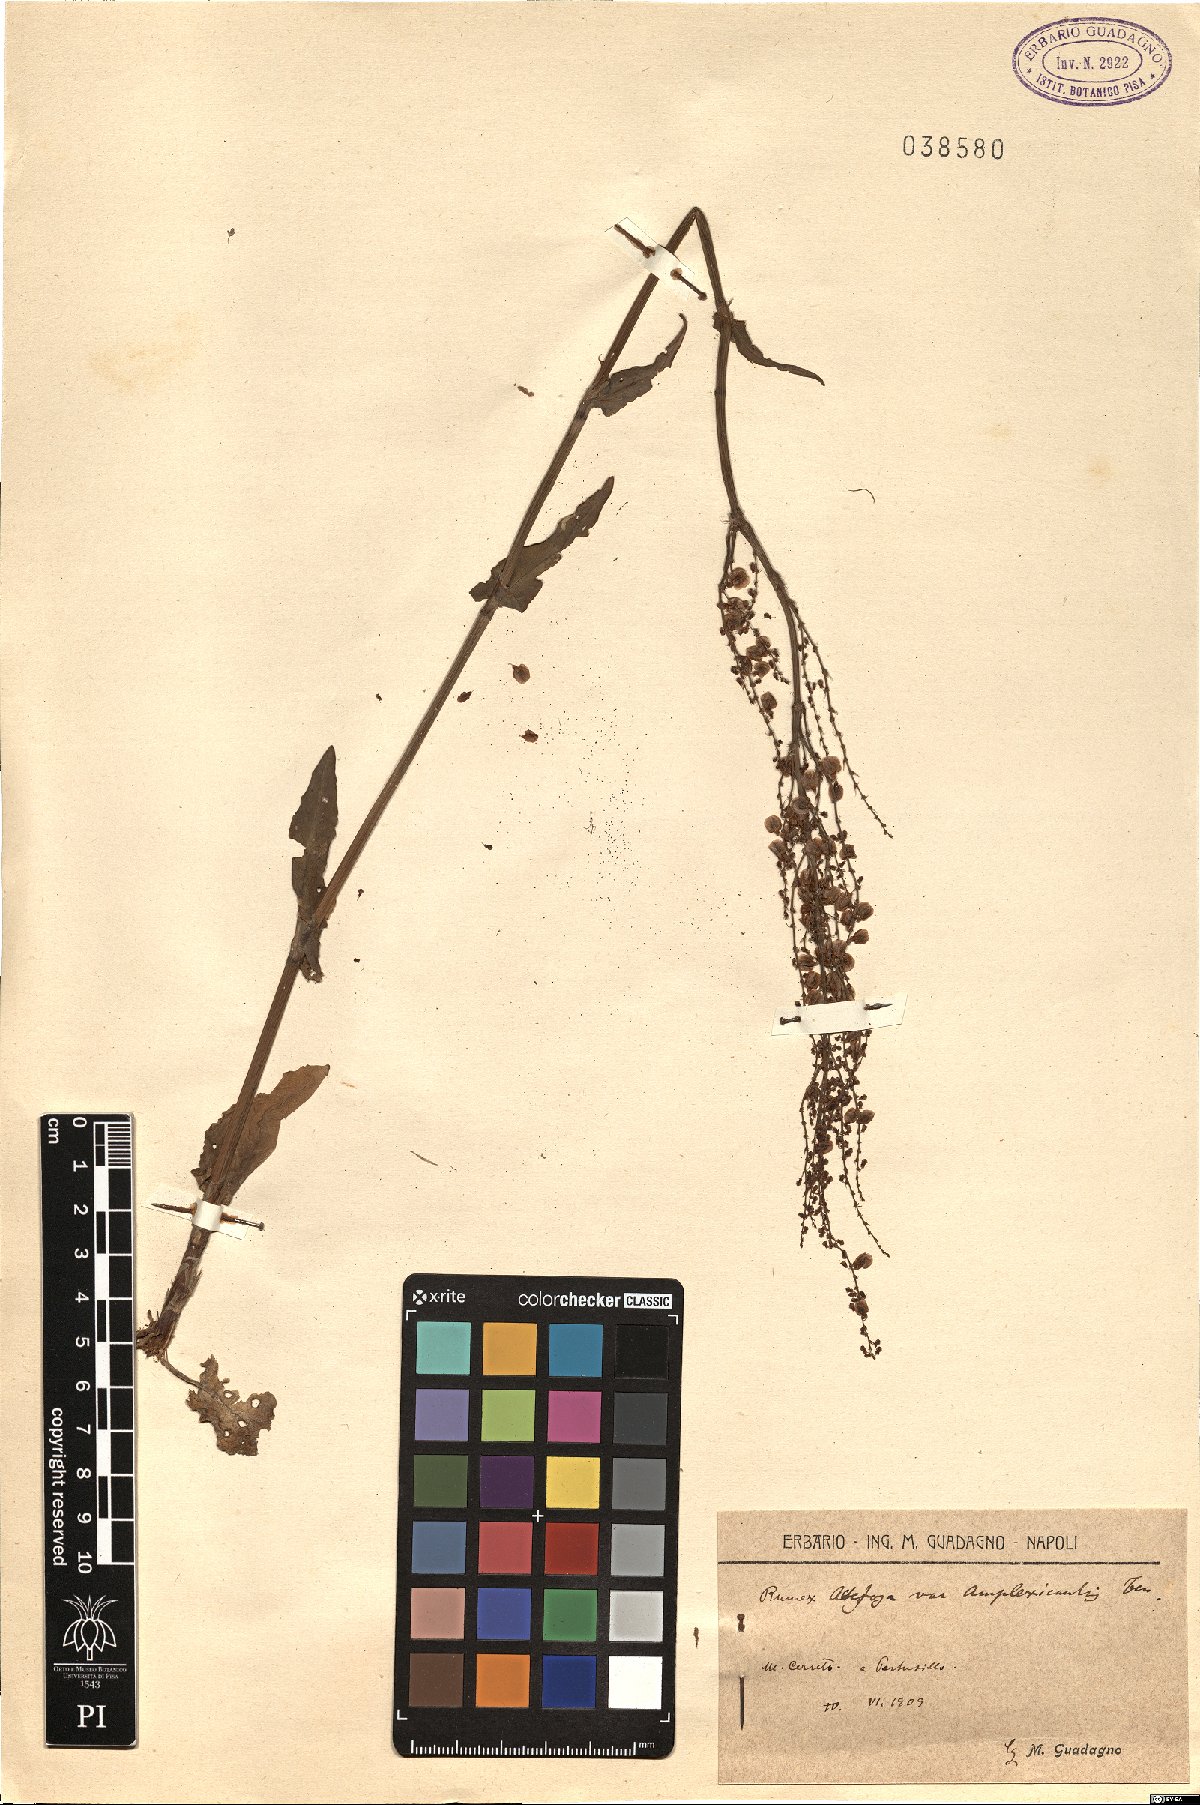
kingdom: Plantae
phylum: Tracheophyta
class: Magnoliopsida
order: Caryophyllales
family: Polygonaceae
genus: Rumex
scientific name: Rumex arifolius
